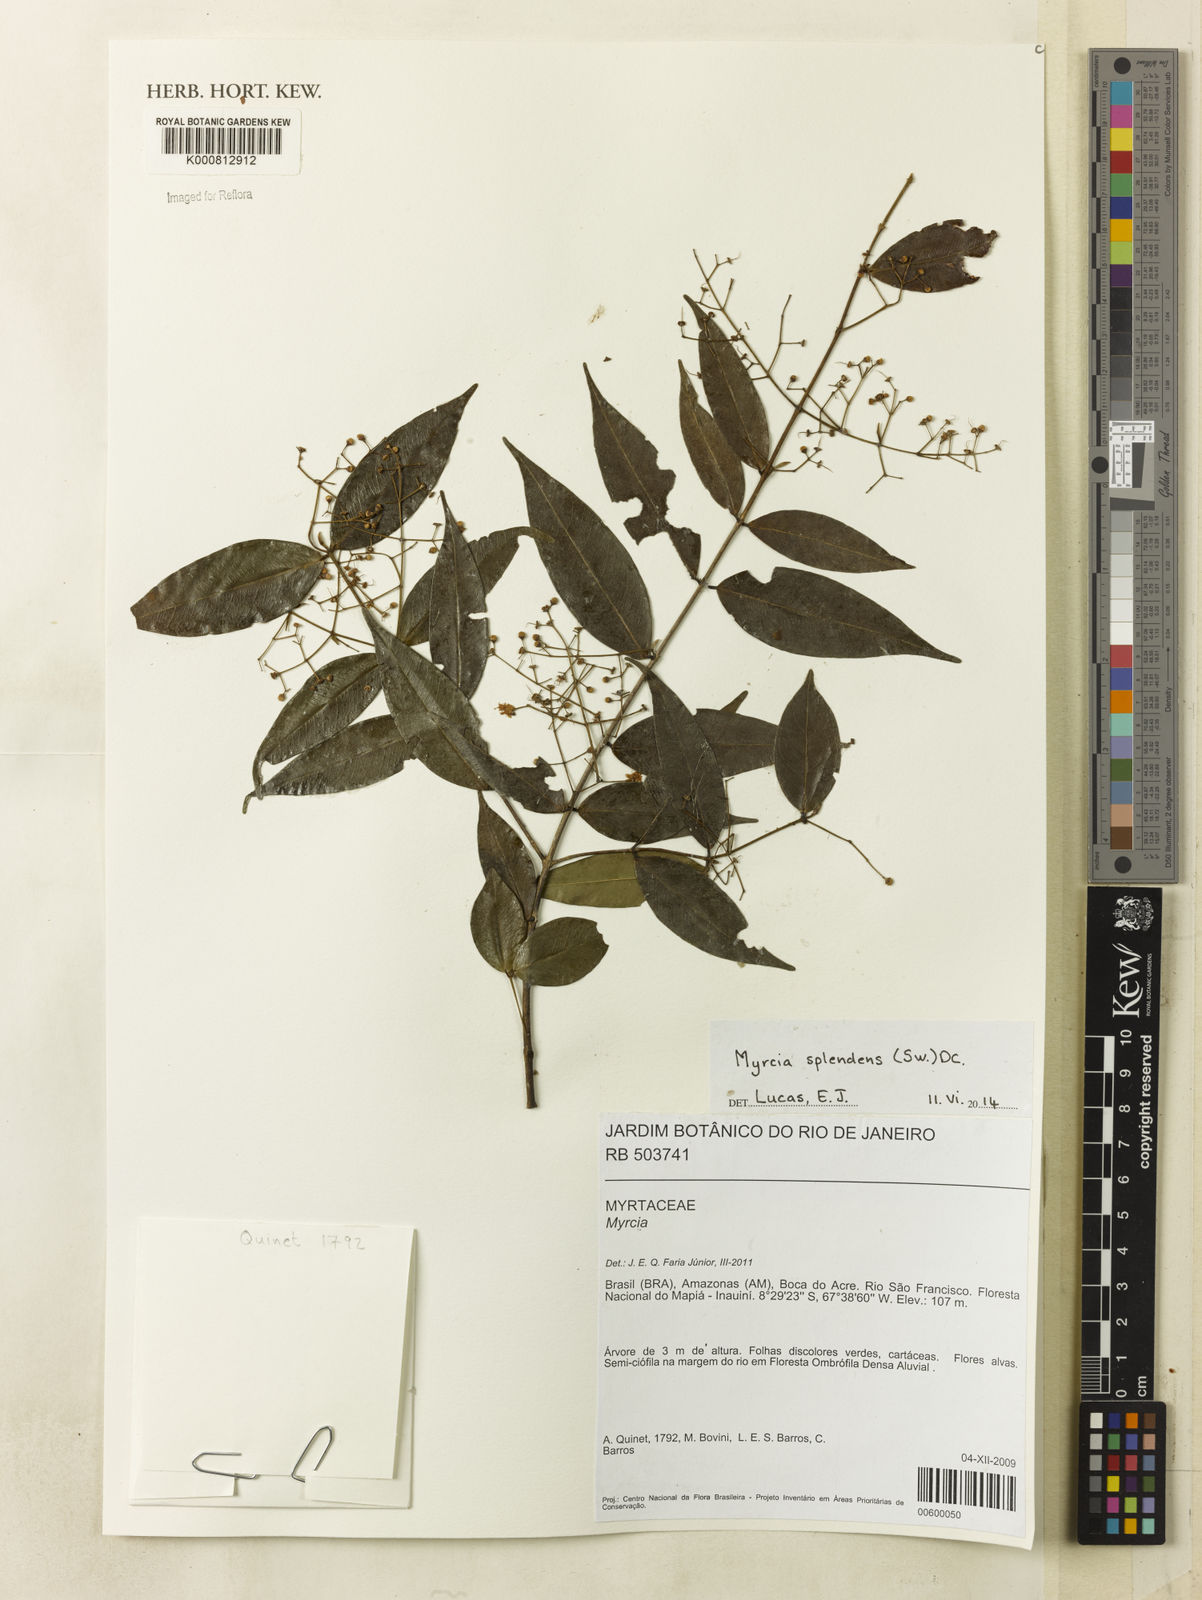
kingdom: Plantae
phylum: Tracheophyta
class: Magnoliopsida
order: Myrtales
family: Myrtaceae
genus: Myrcia
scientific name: Myrcia splendens
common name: Surinam cherry
